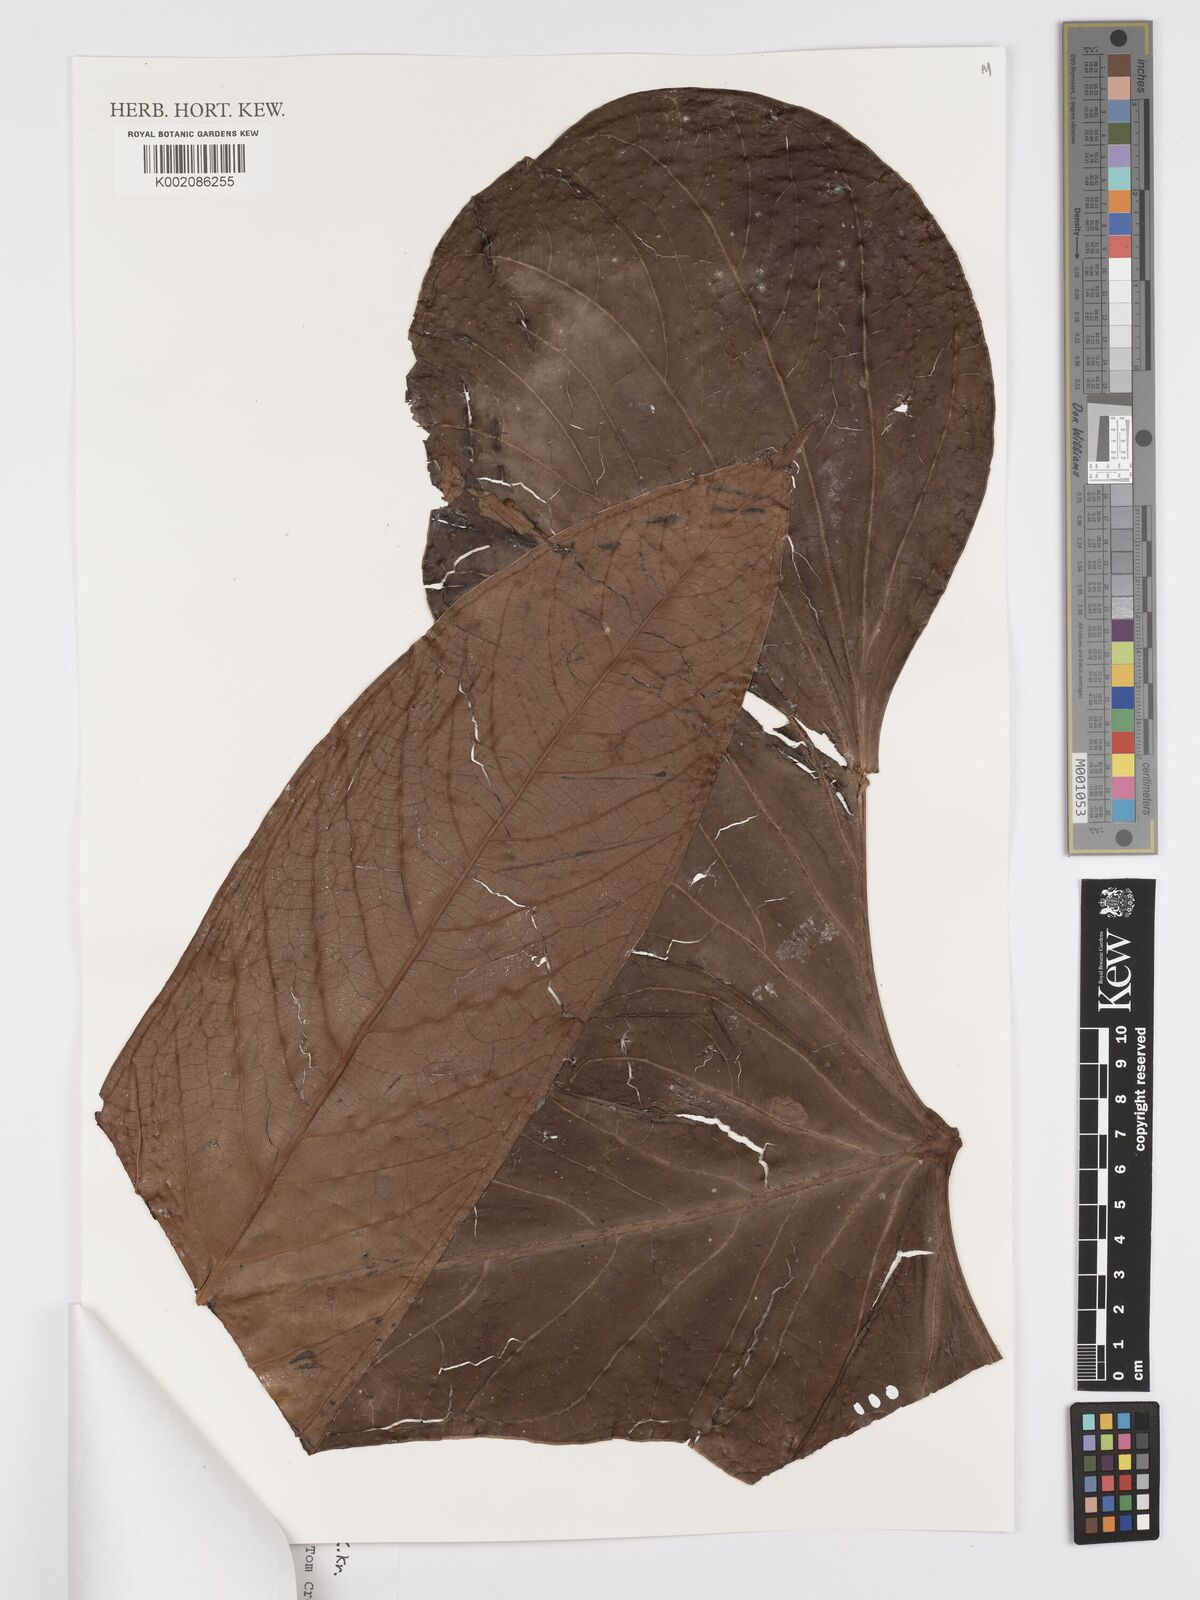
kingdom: Plantae
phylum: Tracheophyta
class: Liliopsida
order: Alismatales
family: Araceae
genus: Anthurium
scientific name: Anthurium herthae
